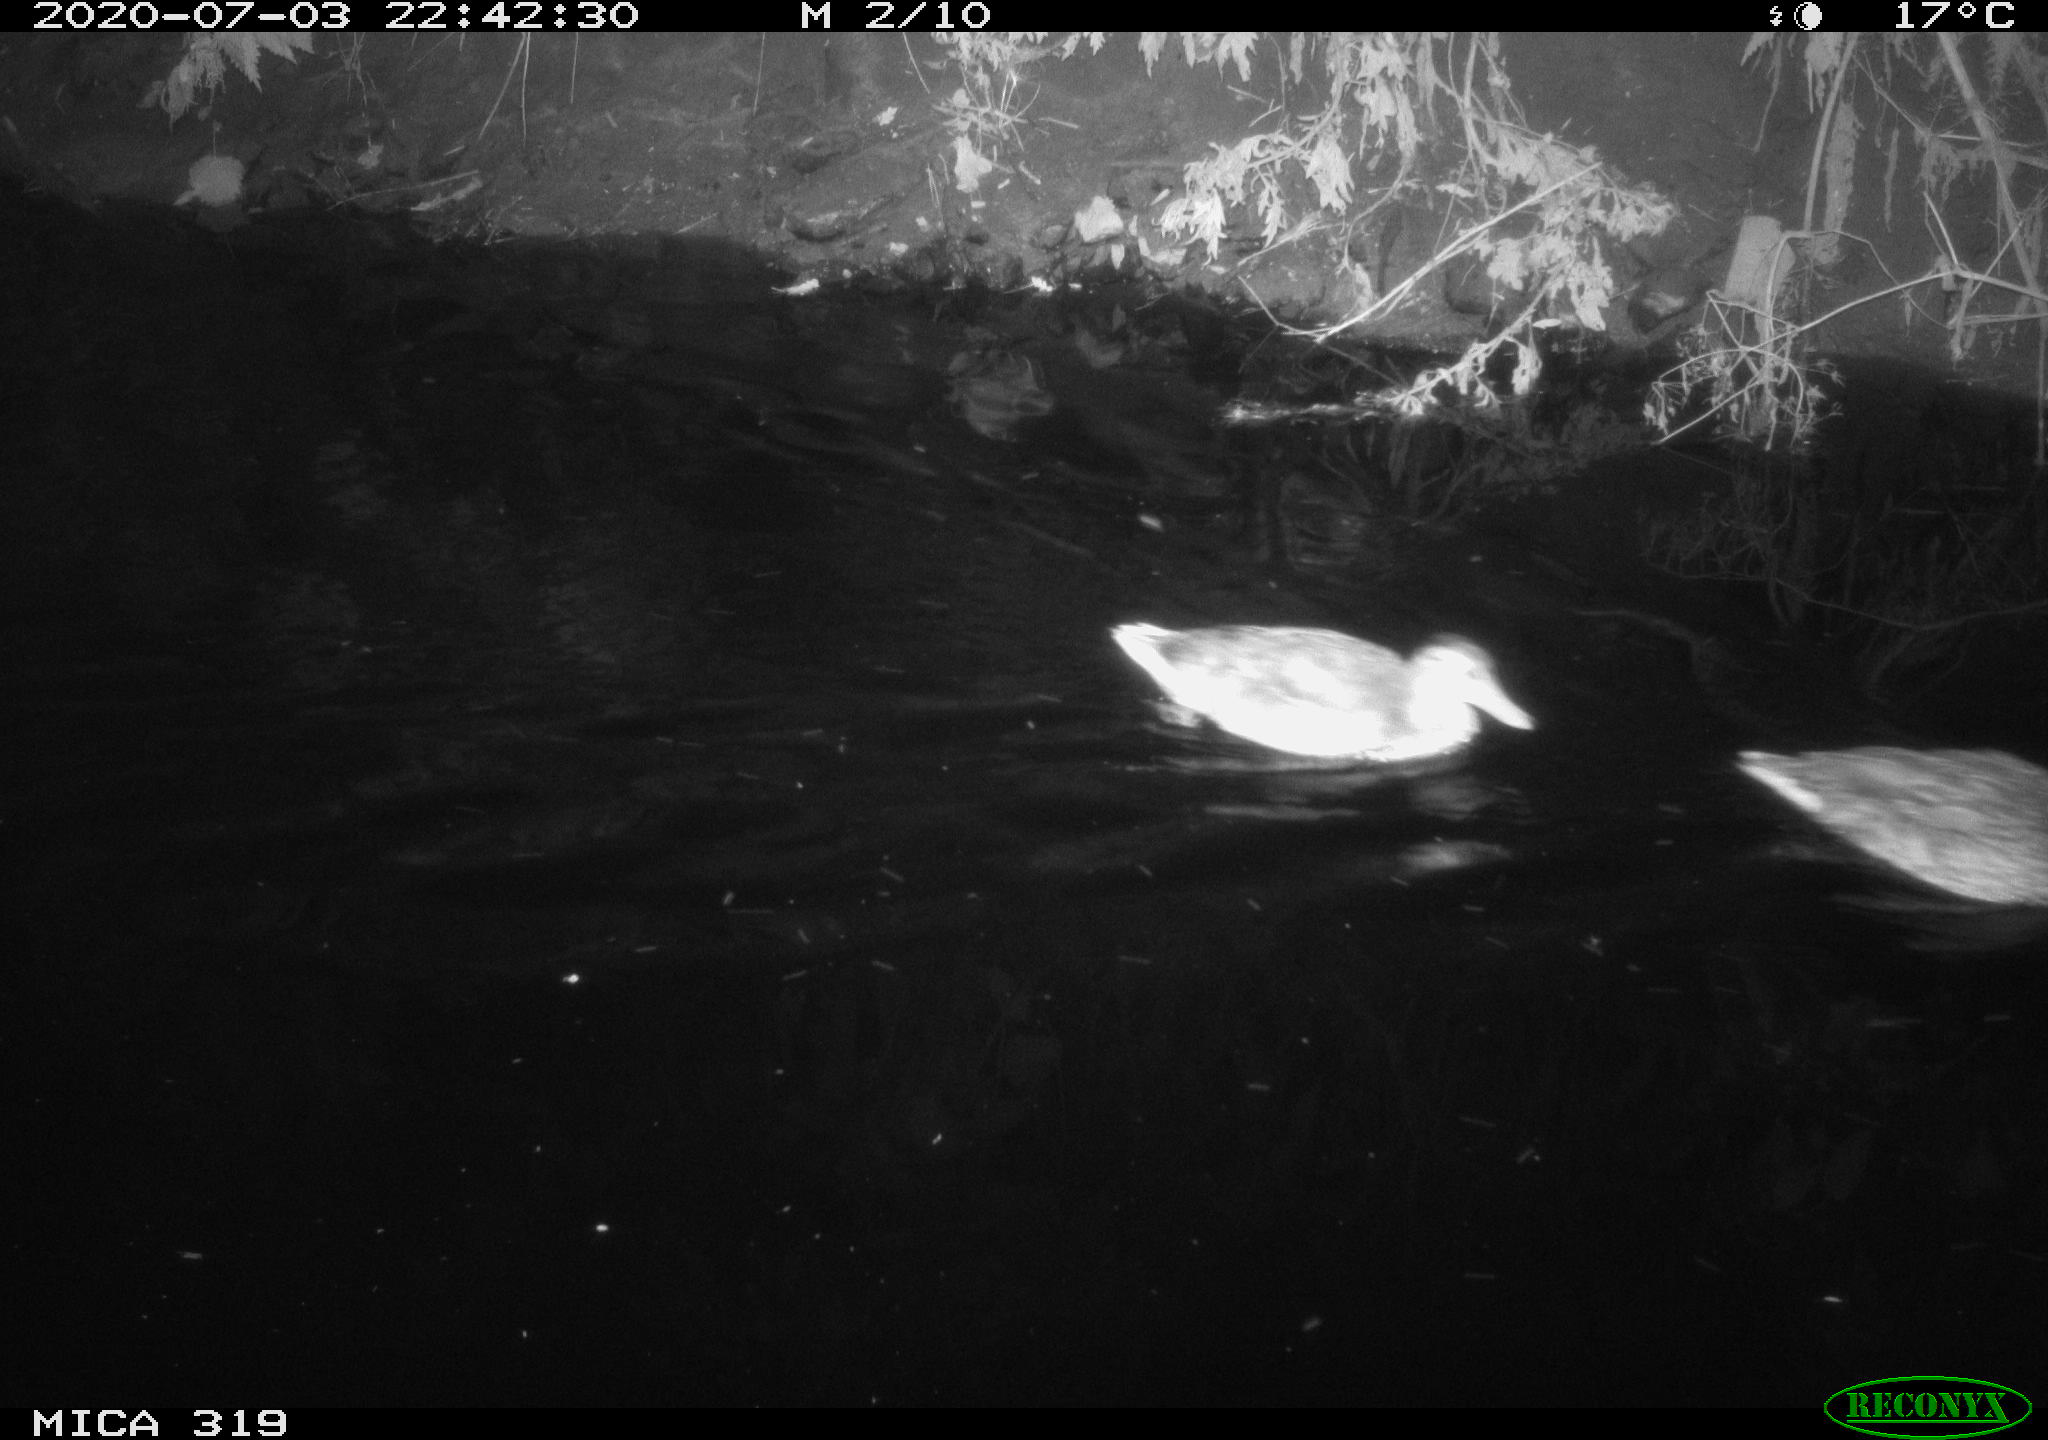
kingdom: Animalia
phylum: Chordata
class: Aves
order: Anseriformes
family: Anatidae
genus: Anas
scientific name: Anas platyrhynchos
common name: Mallard
